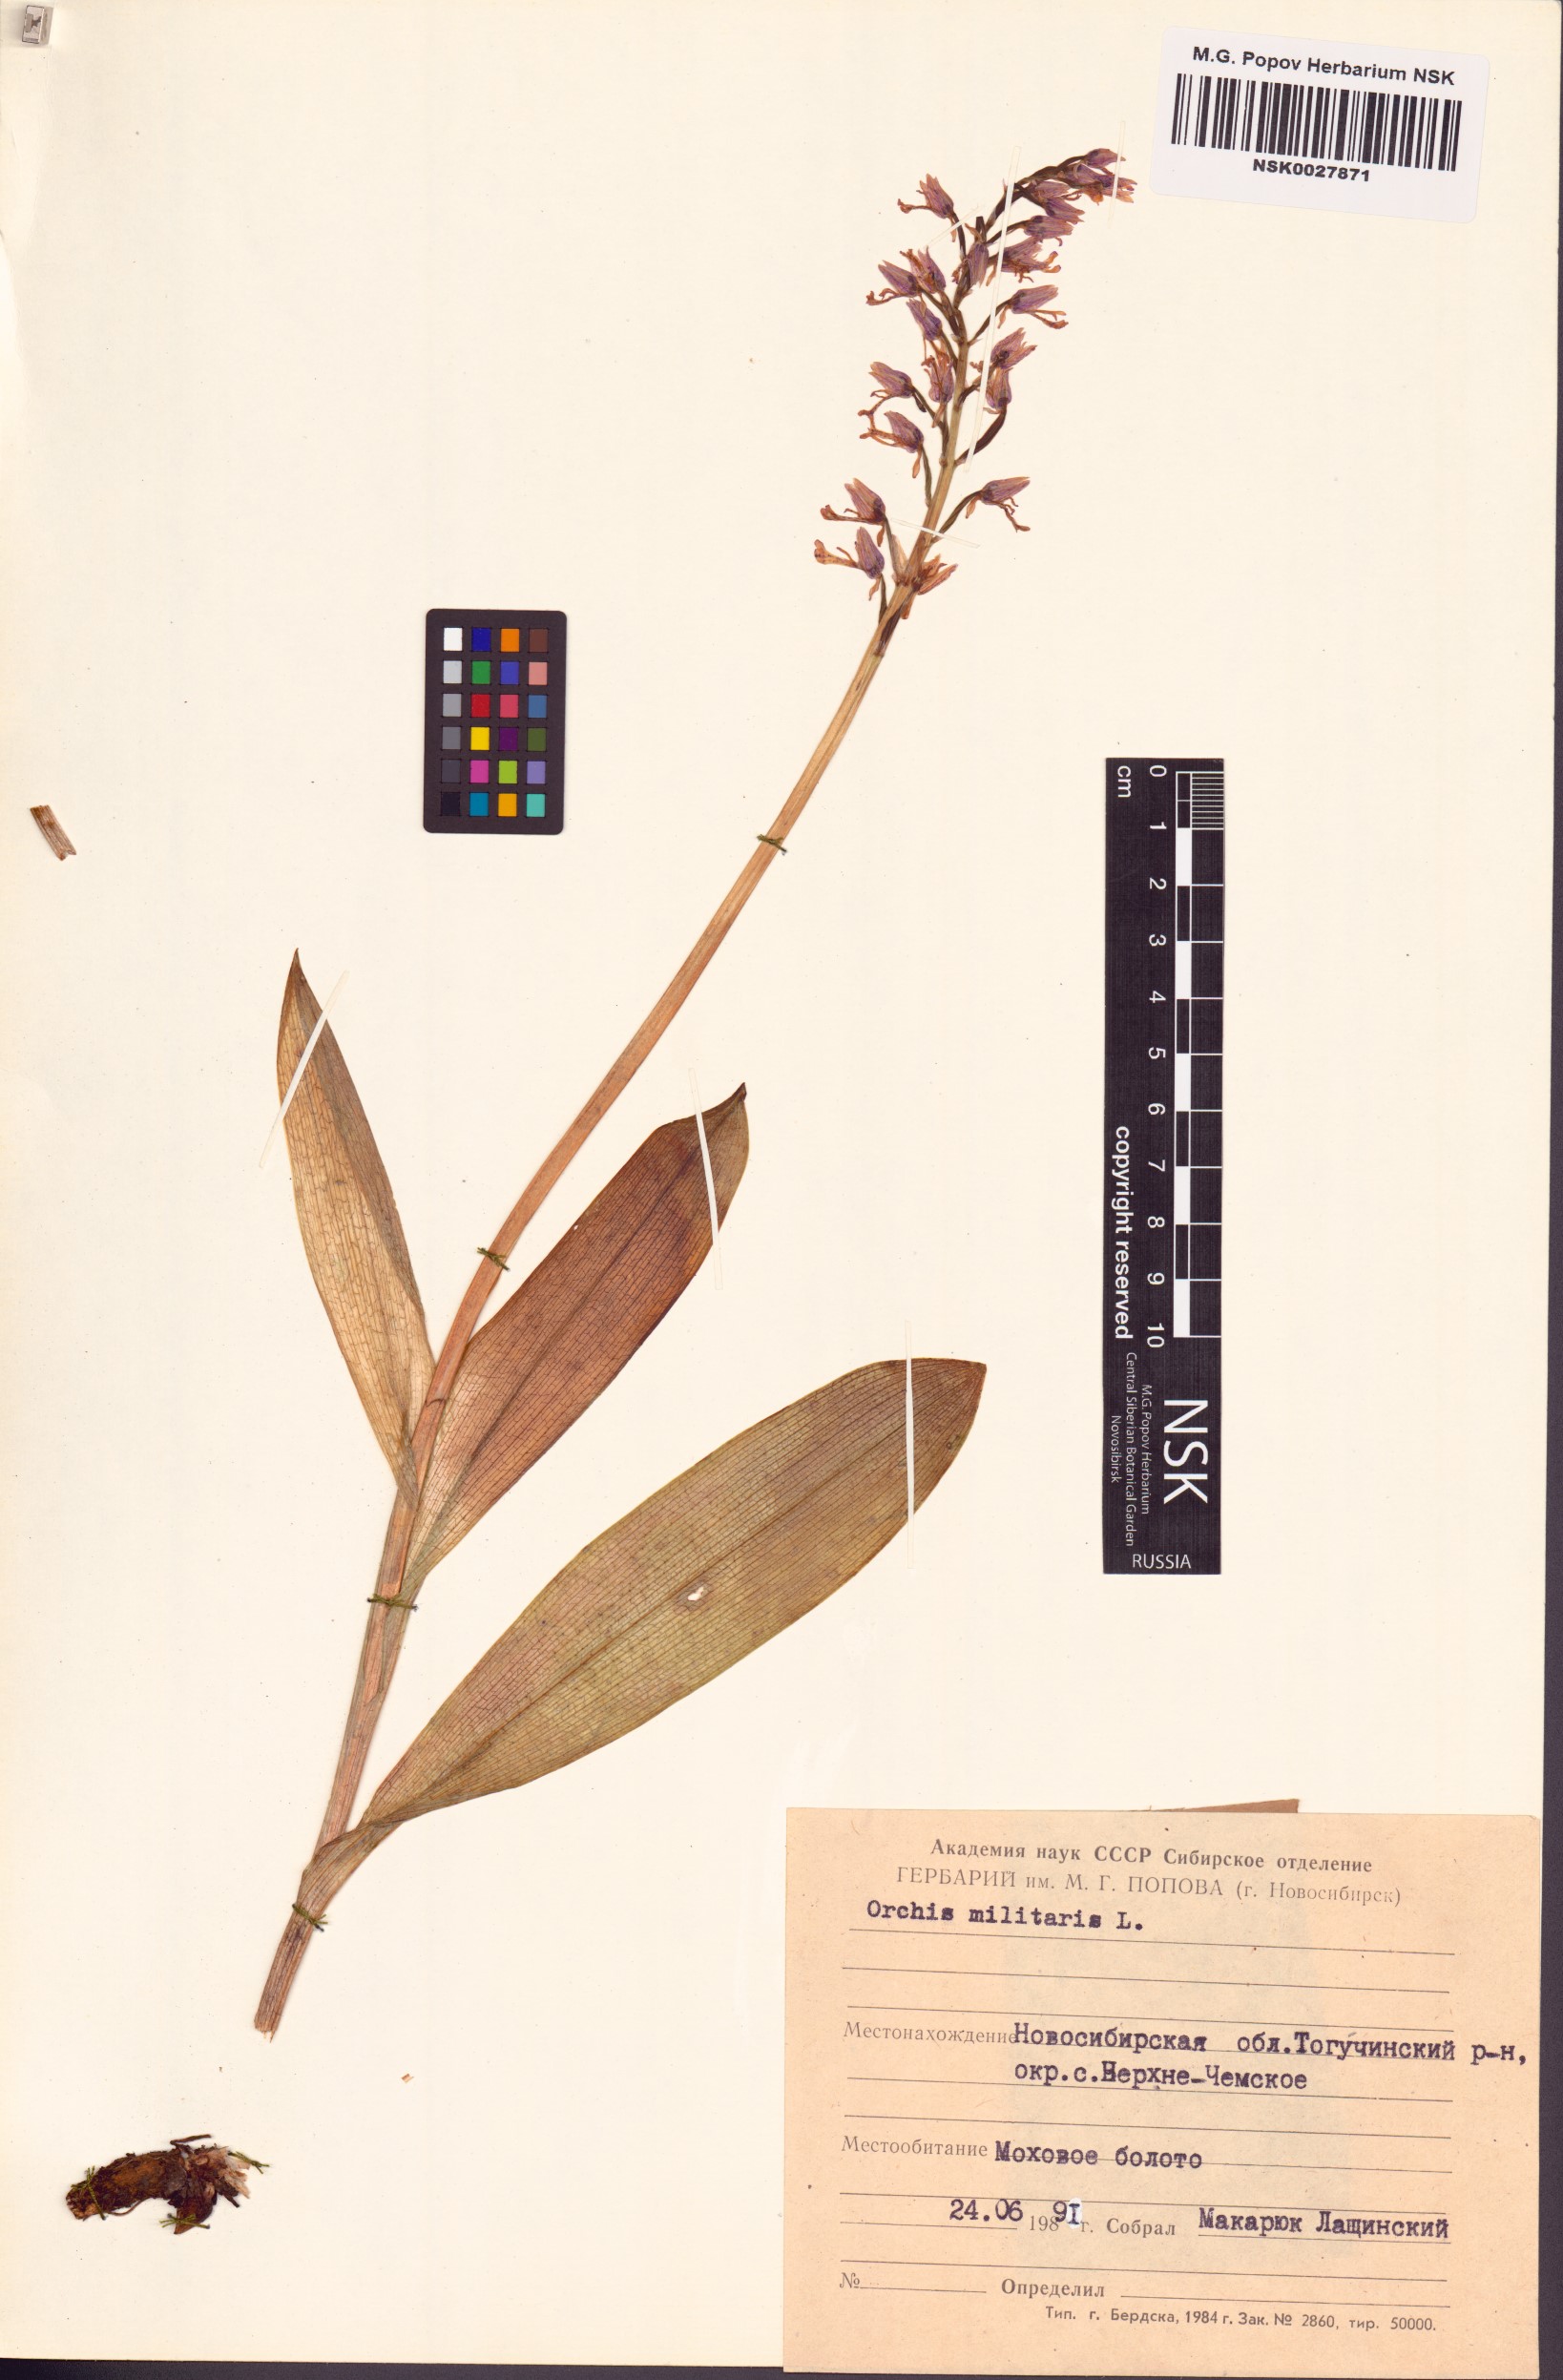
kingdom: Plantae
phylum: Tracheophyta
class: Liliopsida
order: Asparagales
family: Orchidaceae
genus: Orchis
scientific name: Orchis militaris
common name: Military orchid
